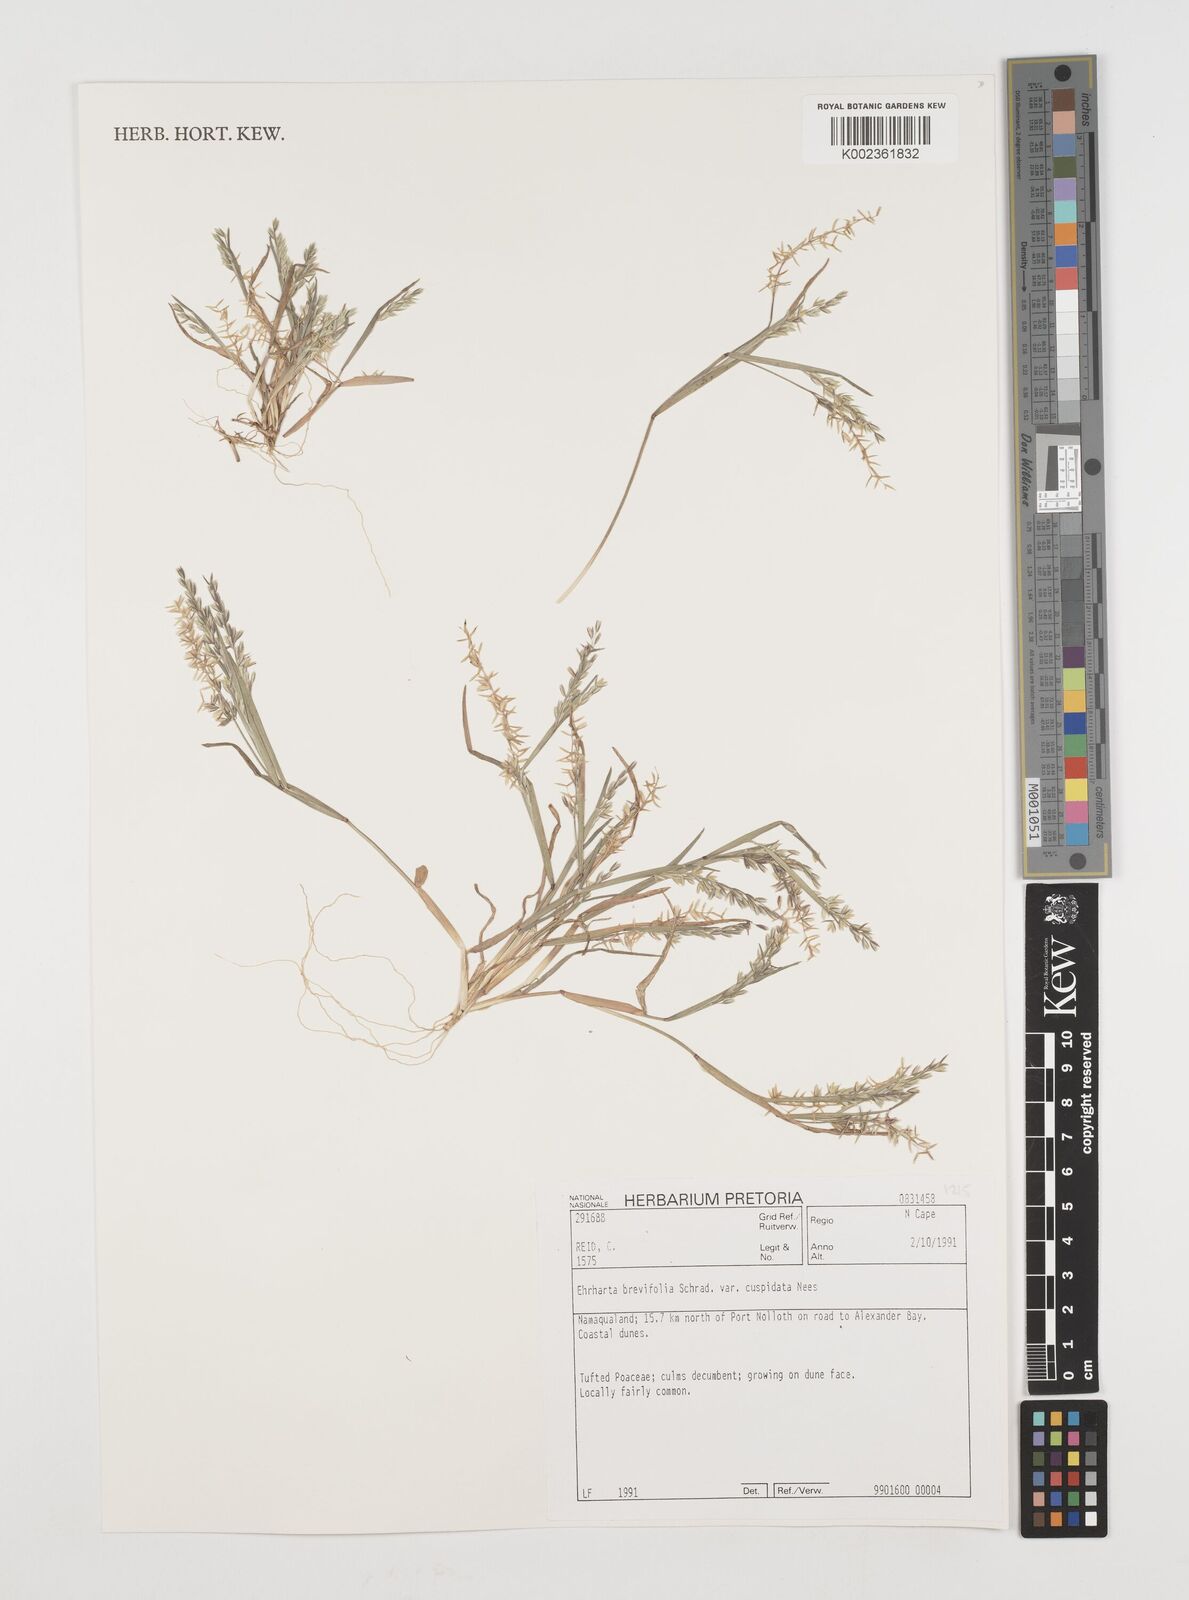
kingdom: Plantae
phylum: Tracheophyta
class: Liliopsida
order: Poales
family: Poaceae
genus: Ehrharta
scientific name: Ehrharta brevifolia
